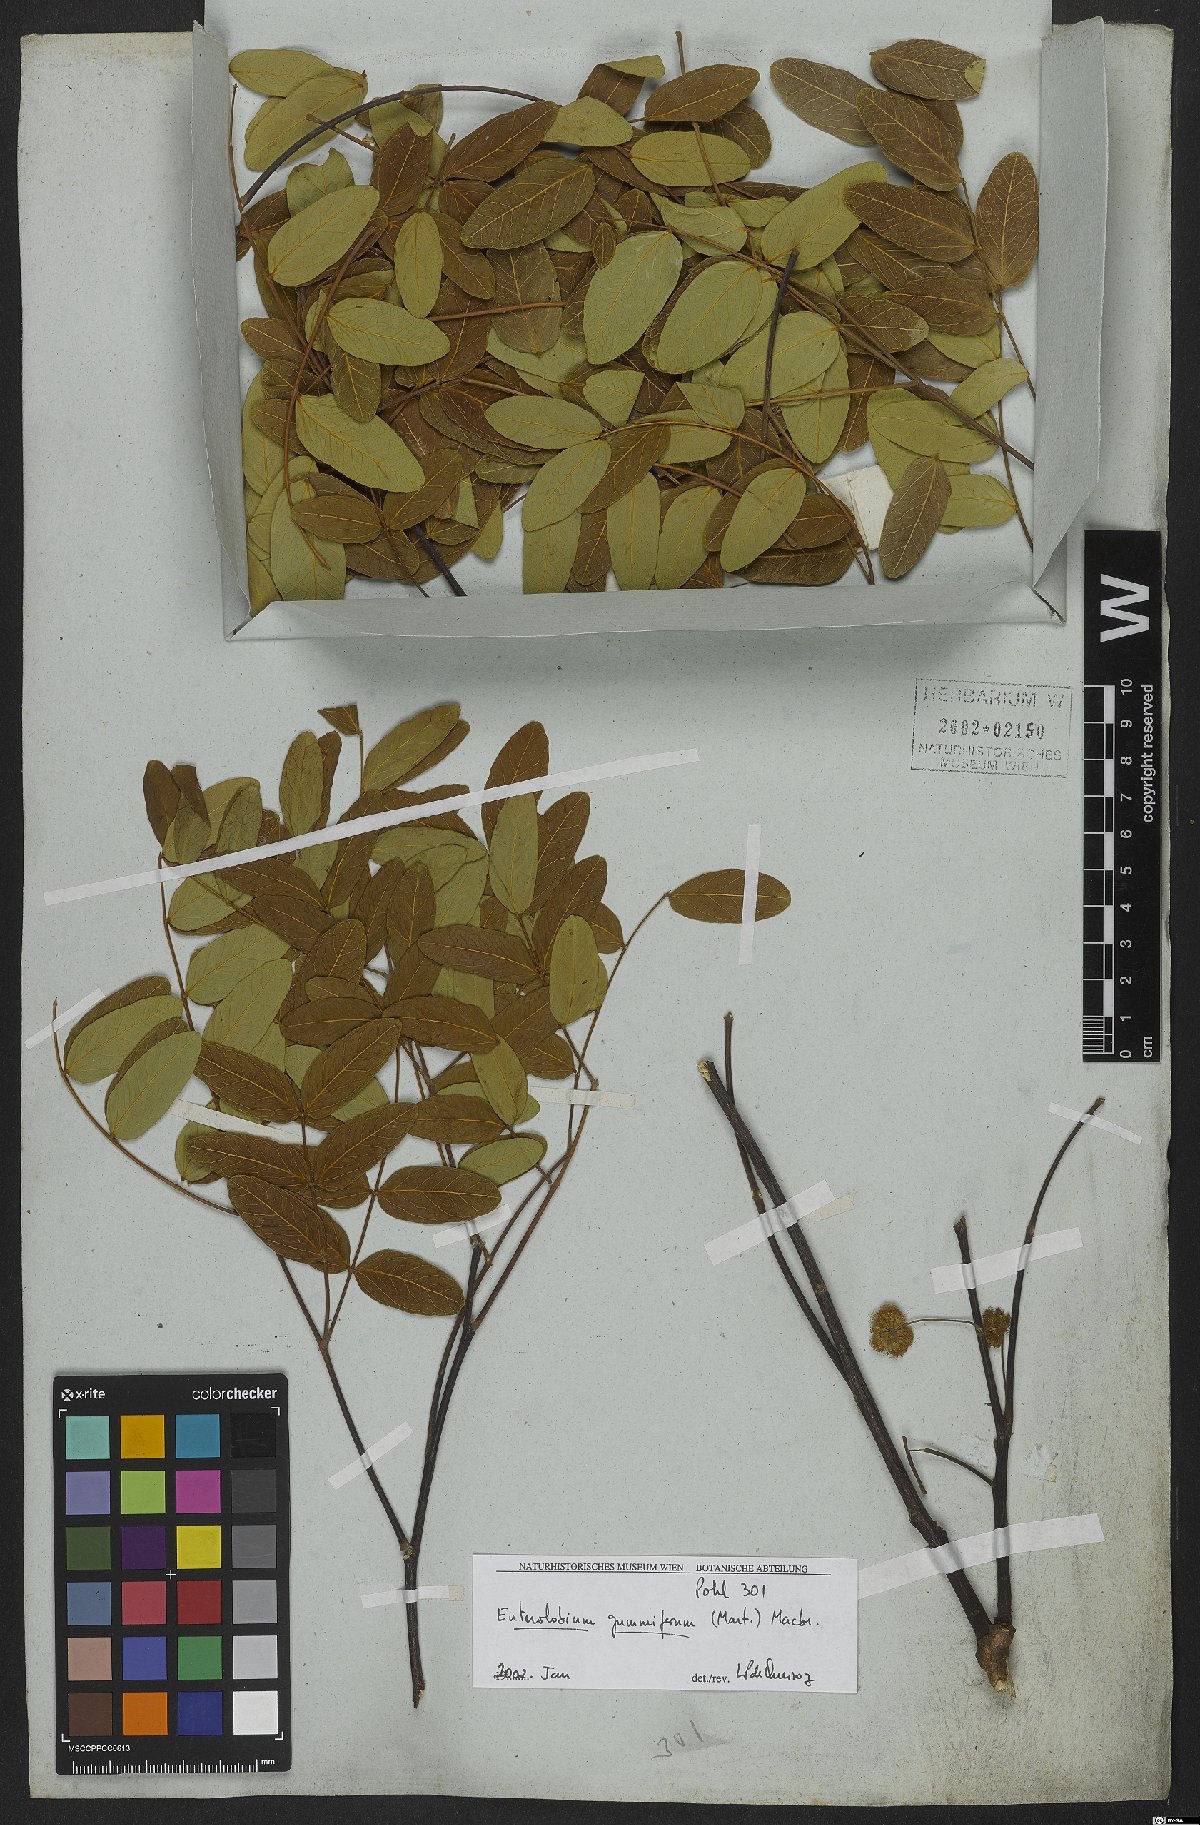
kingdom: Plantae
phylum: Tracheophyta
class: Magnoliopsida
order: Fabales
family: Fabaceae
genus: Enterolobium
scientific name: Enterolobium gummiferum
